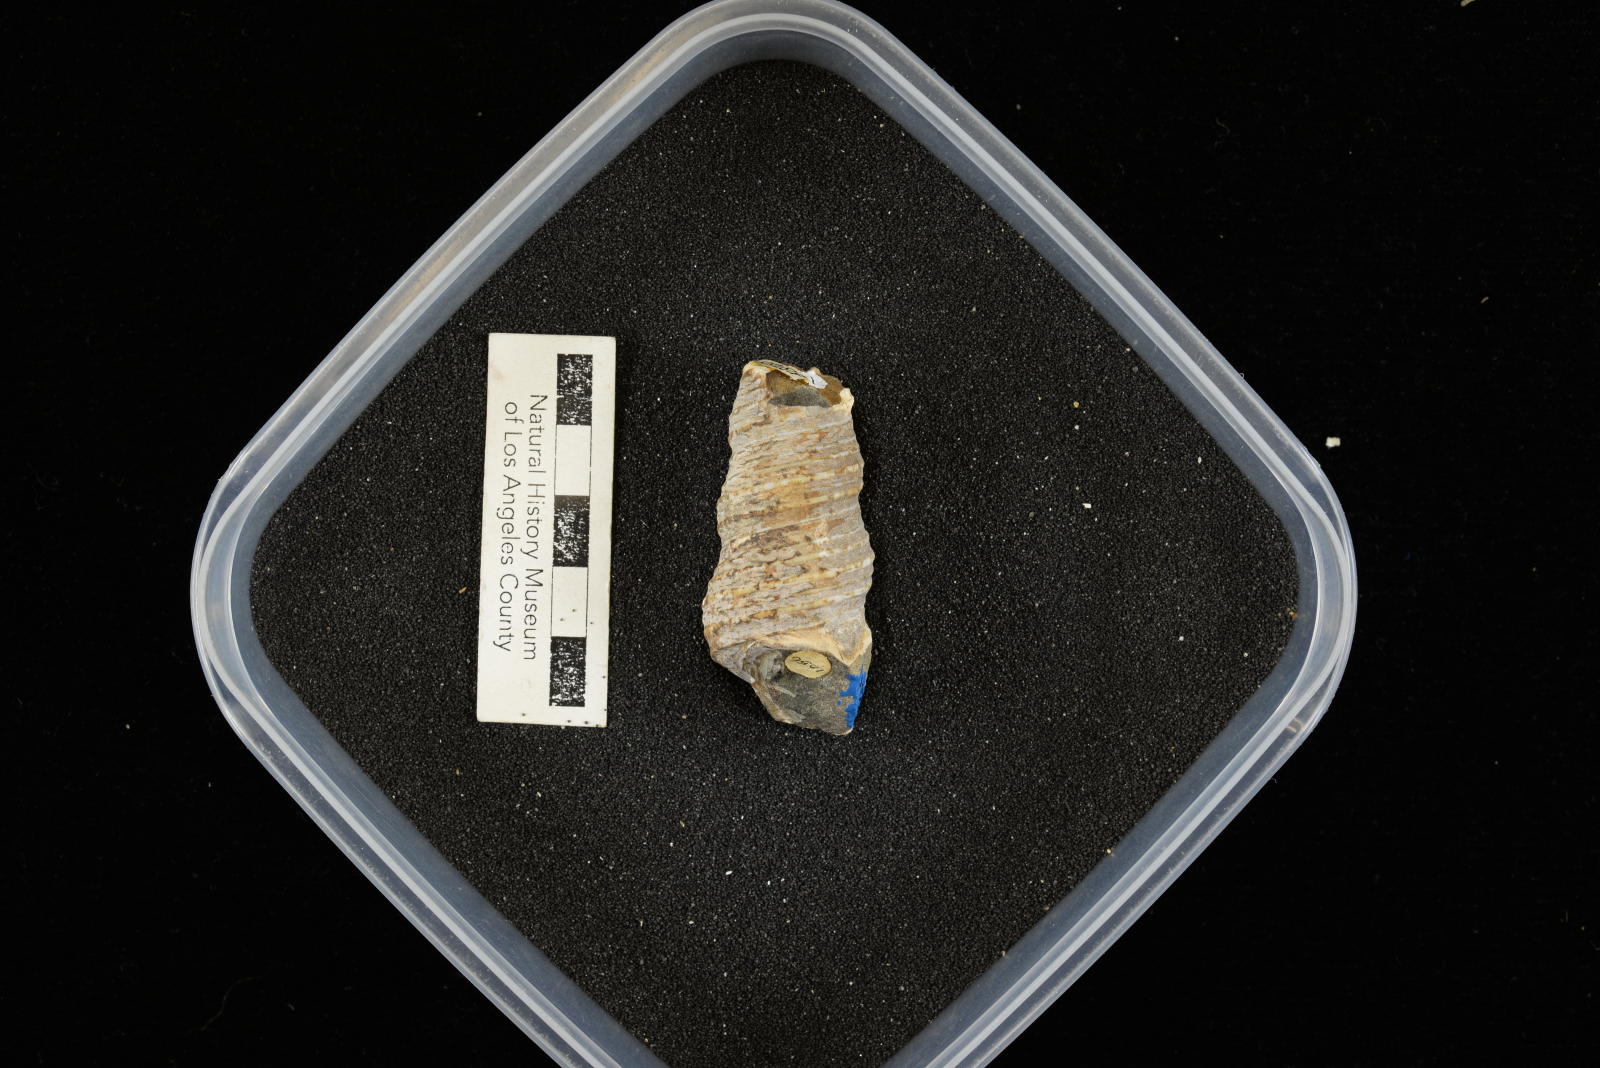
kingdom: Animalia
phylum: Mollusca
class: Gastropoda
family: Turritellidae
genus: Turritella
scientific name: Turritella chicoensis
